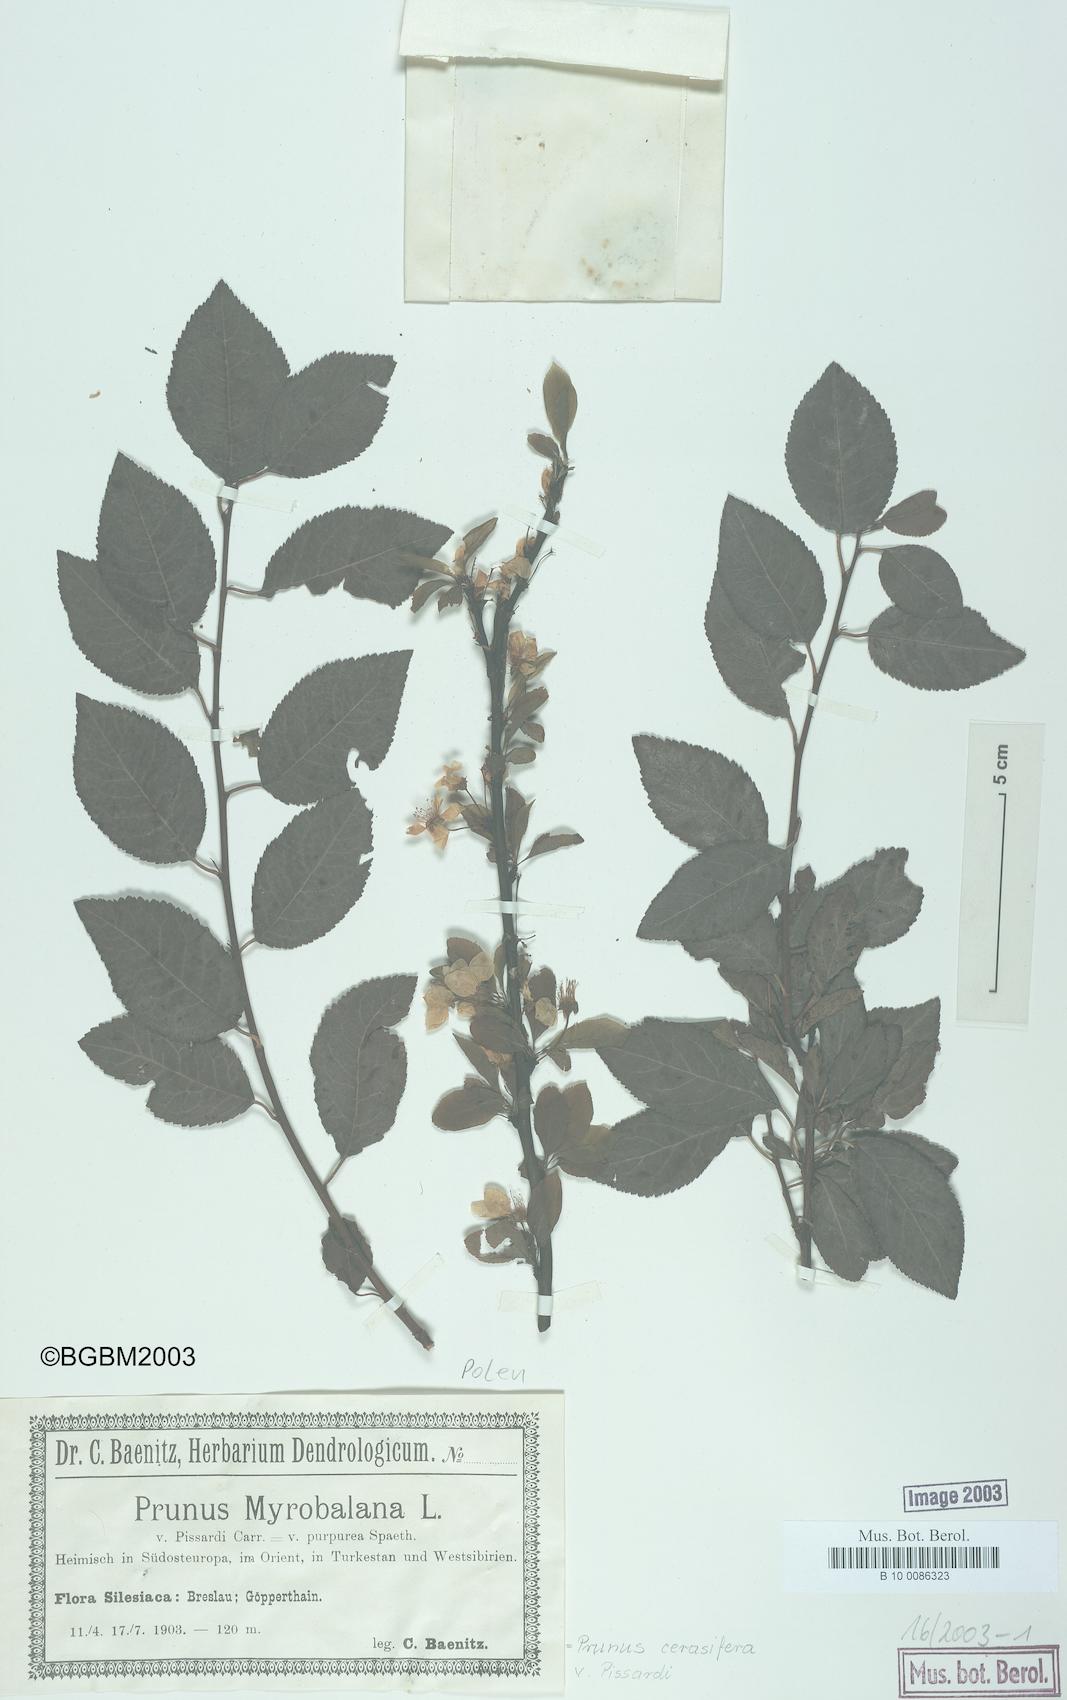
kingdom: Plantae
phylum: Tracheophyta
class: Magnoliopsida
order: Rosales
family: Rosaceae
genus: Prunus
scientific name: Prunus cerasifera
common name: Cherry plum
